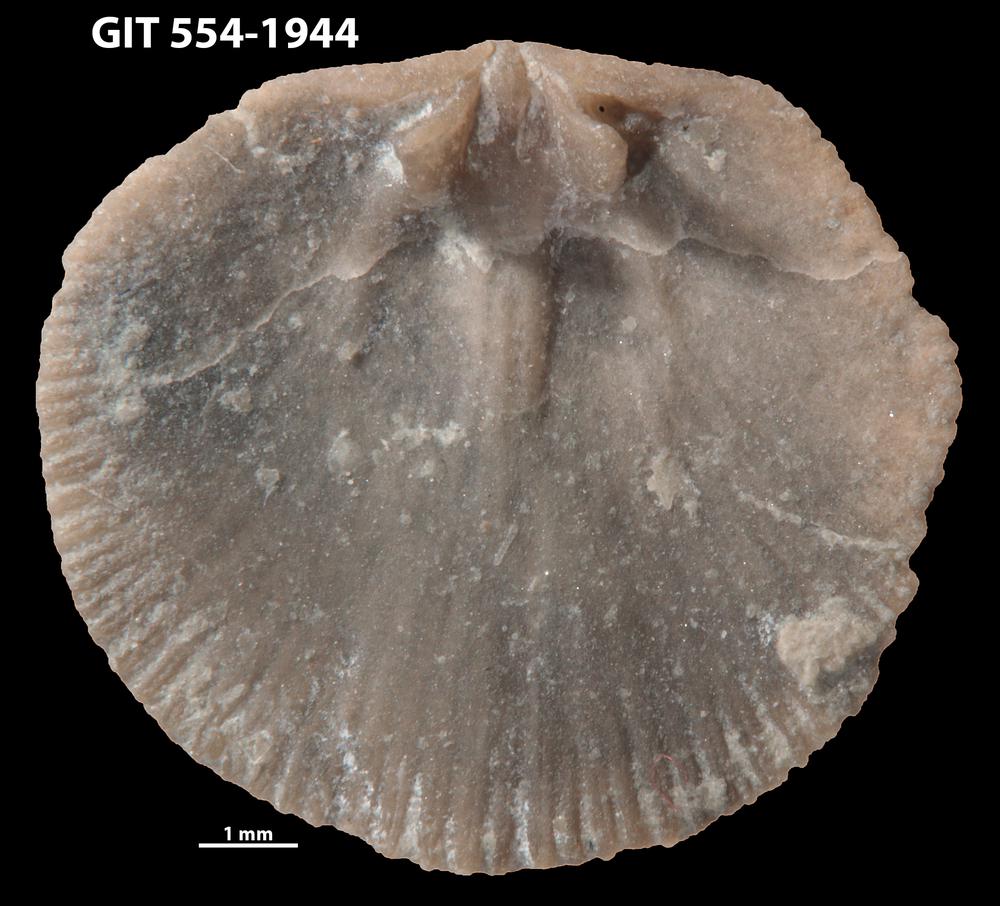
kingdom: Animalia
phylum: Brachiopoda
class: Rhynchonellata
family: Dalmanellidae
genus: Onniella
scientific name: Onniella trigona
